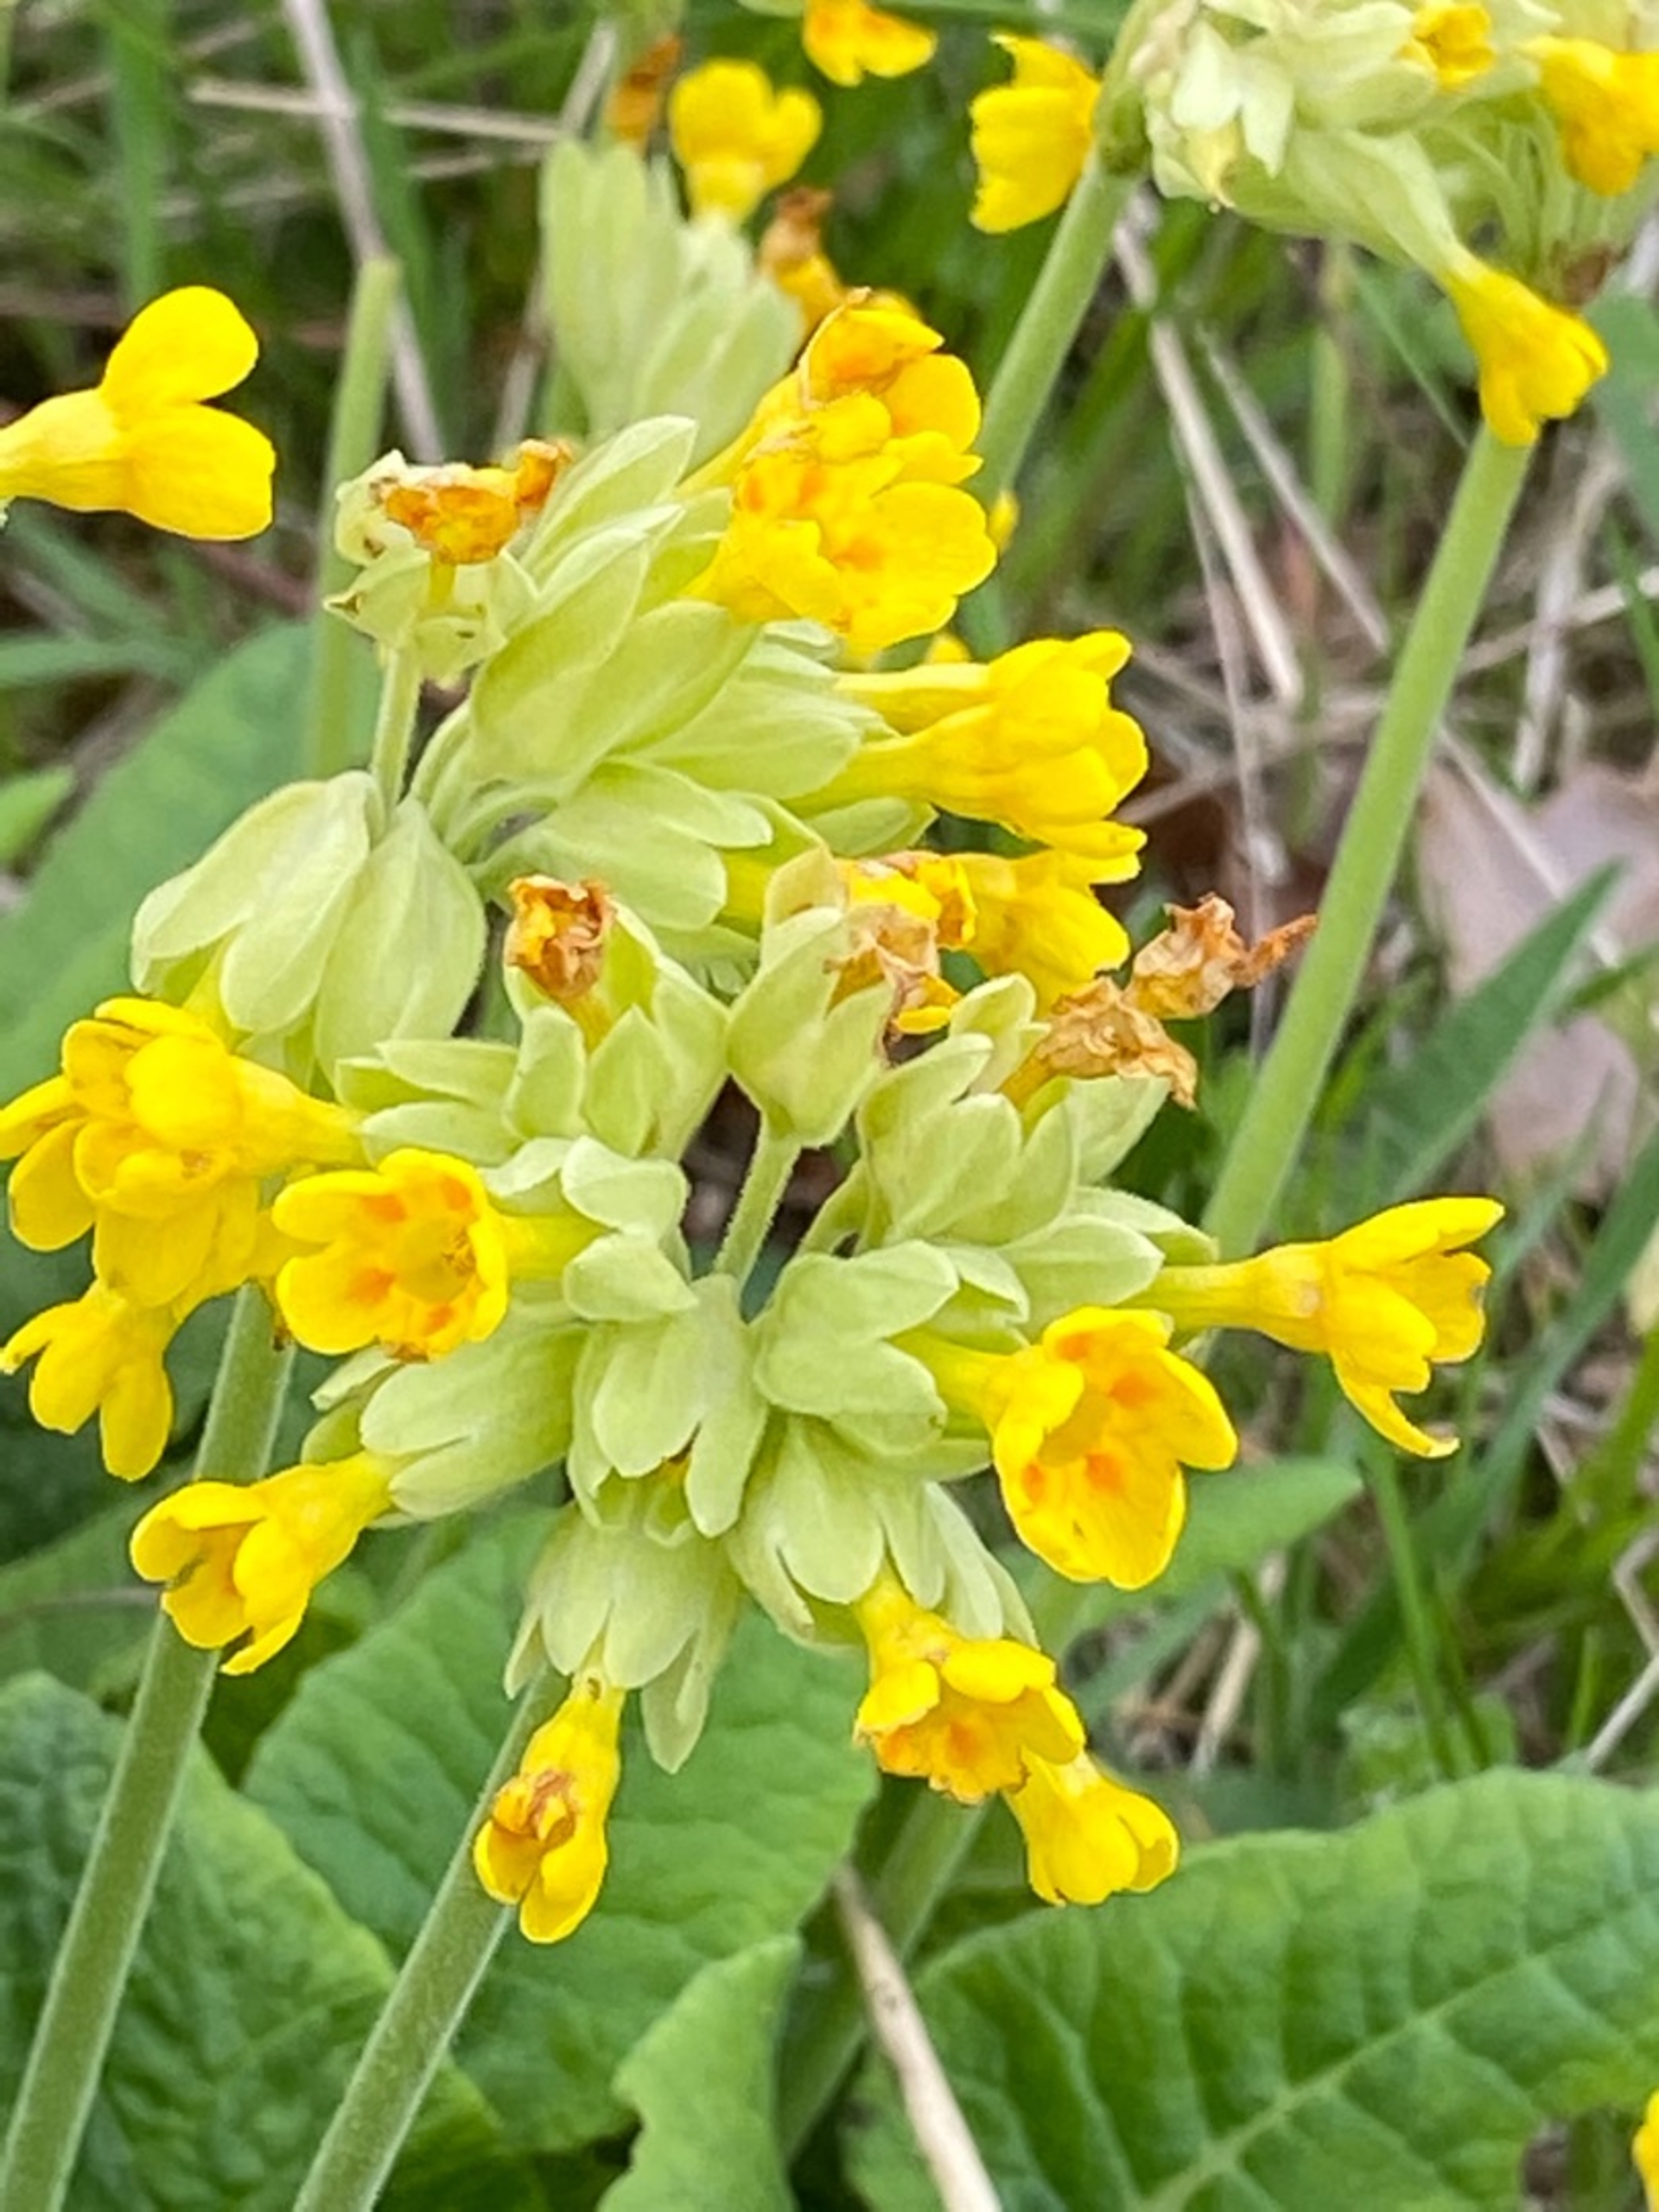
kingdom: Plantae
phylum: Tracheophyta
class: Magnoliopsida
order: Ericales
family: Primulaceae
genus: Primula
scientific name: Primula veris
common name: Hulkravet kodriver
